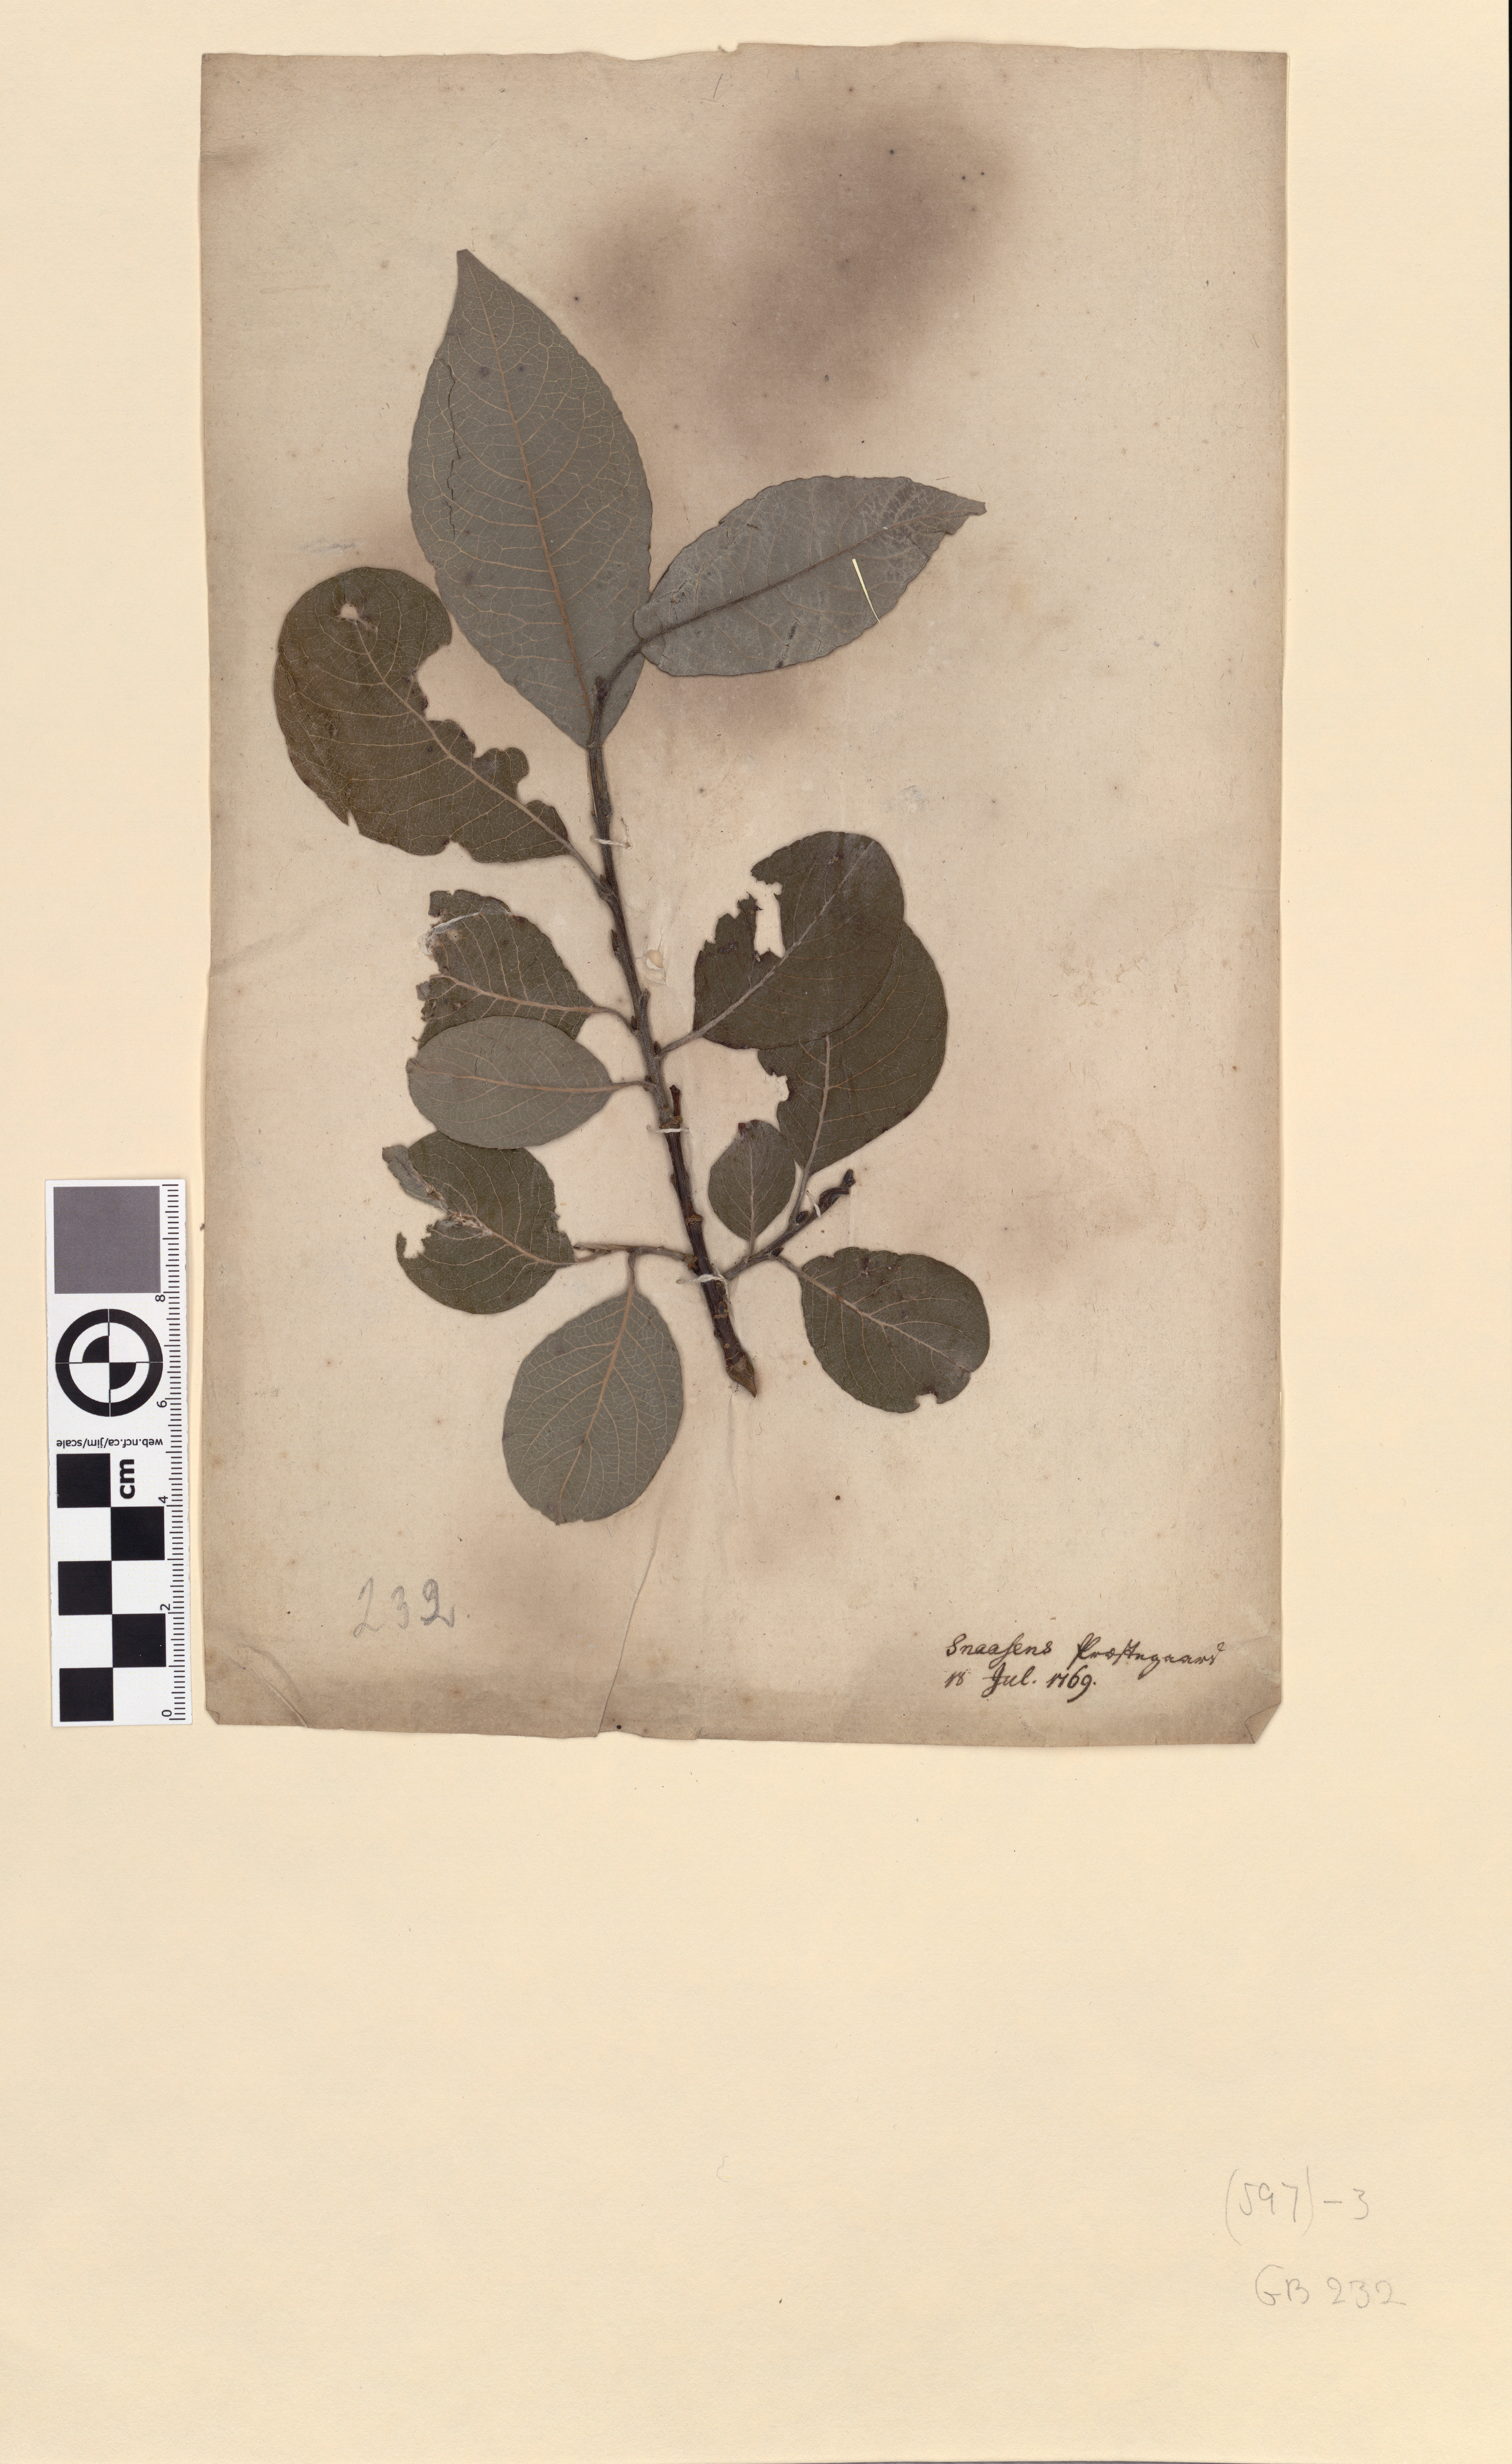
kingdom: Plantae
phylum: Tracheophyta
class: Magnoliopsida
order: Malpighiales
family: Salicaceae
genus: Salix
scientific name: Salix caprea
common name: Goat willow
